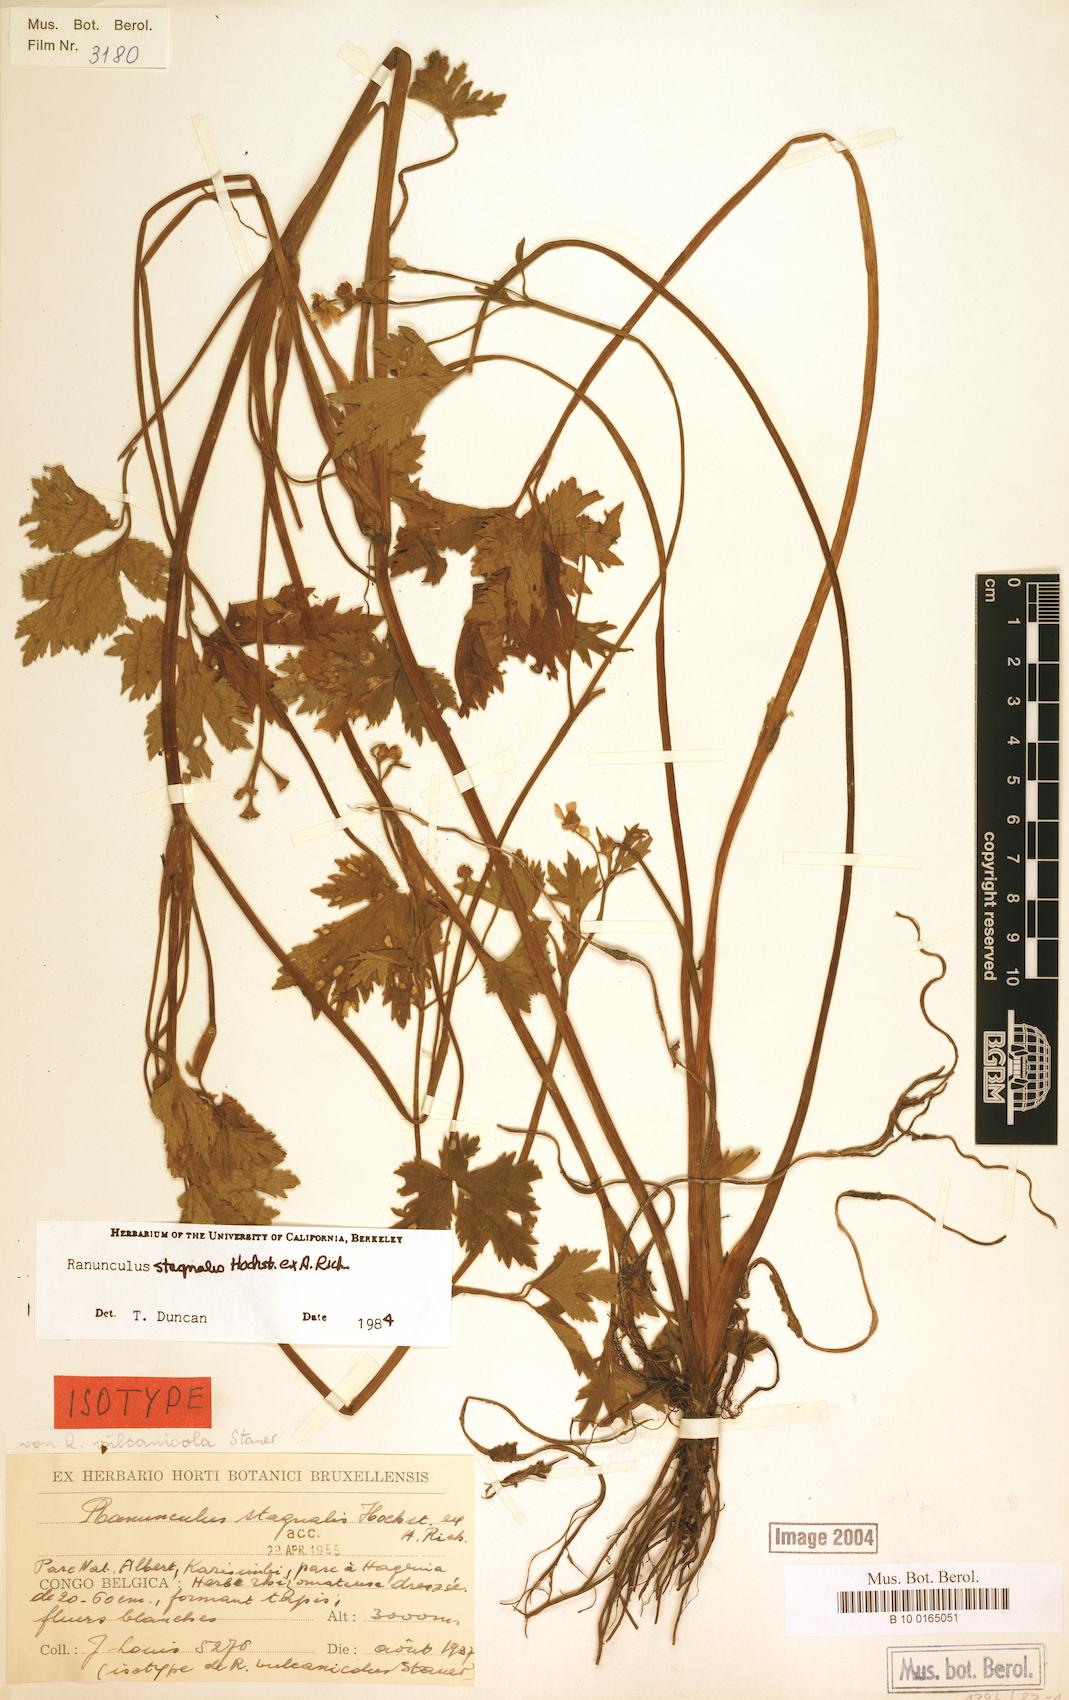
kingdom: Plantae
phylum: Tracheophyta
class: Magnoliopsida
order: Ranunculales
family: Ranunculaceae
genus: Ranunculus
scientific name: Ranunculus stagnalis
